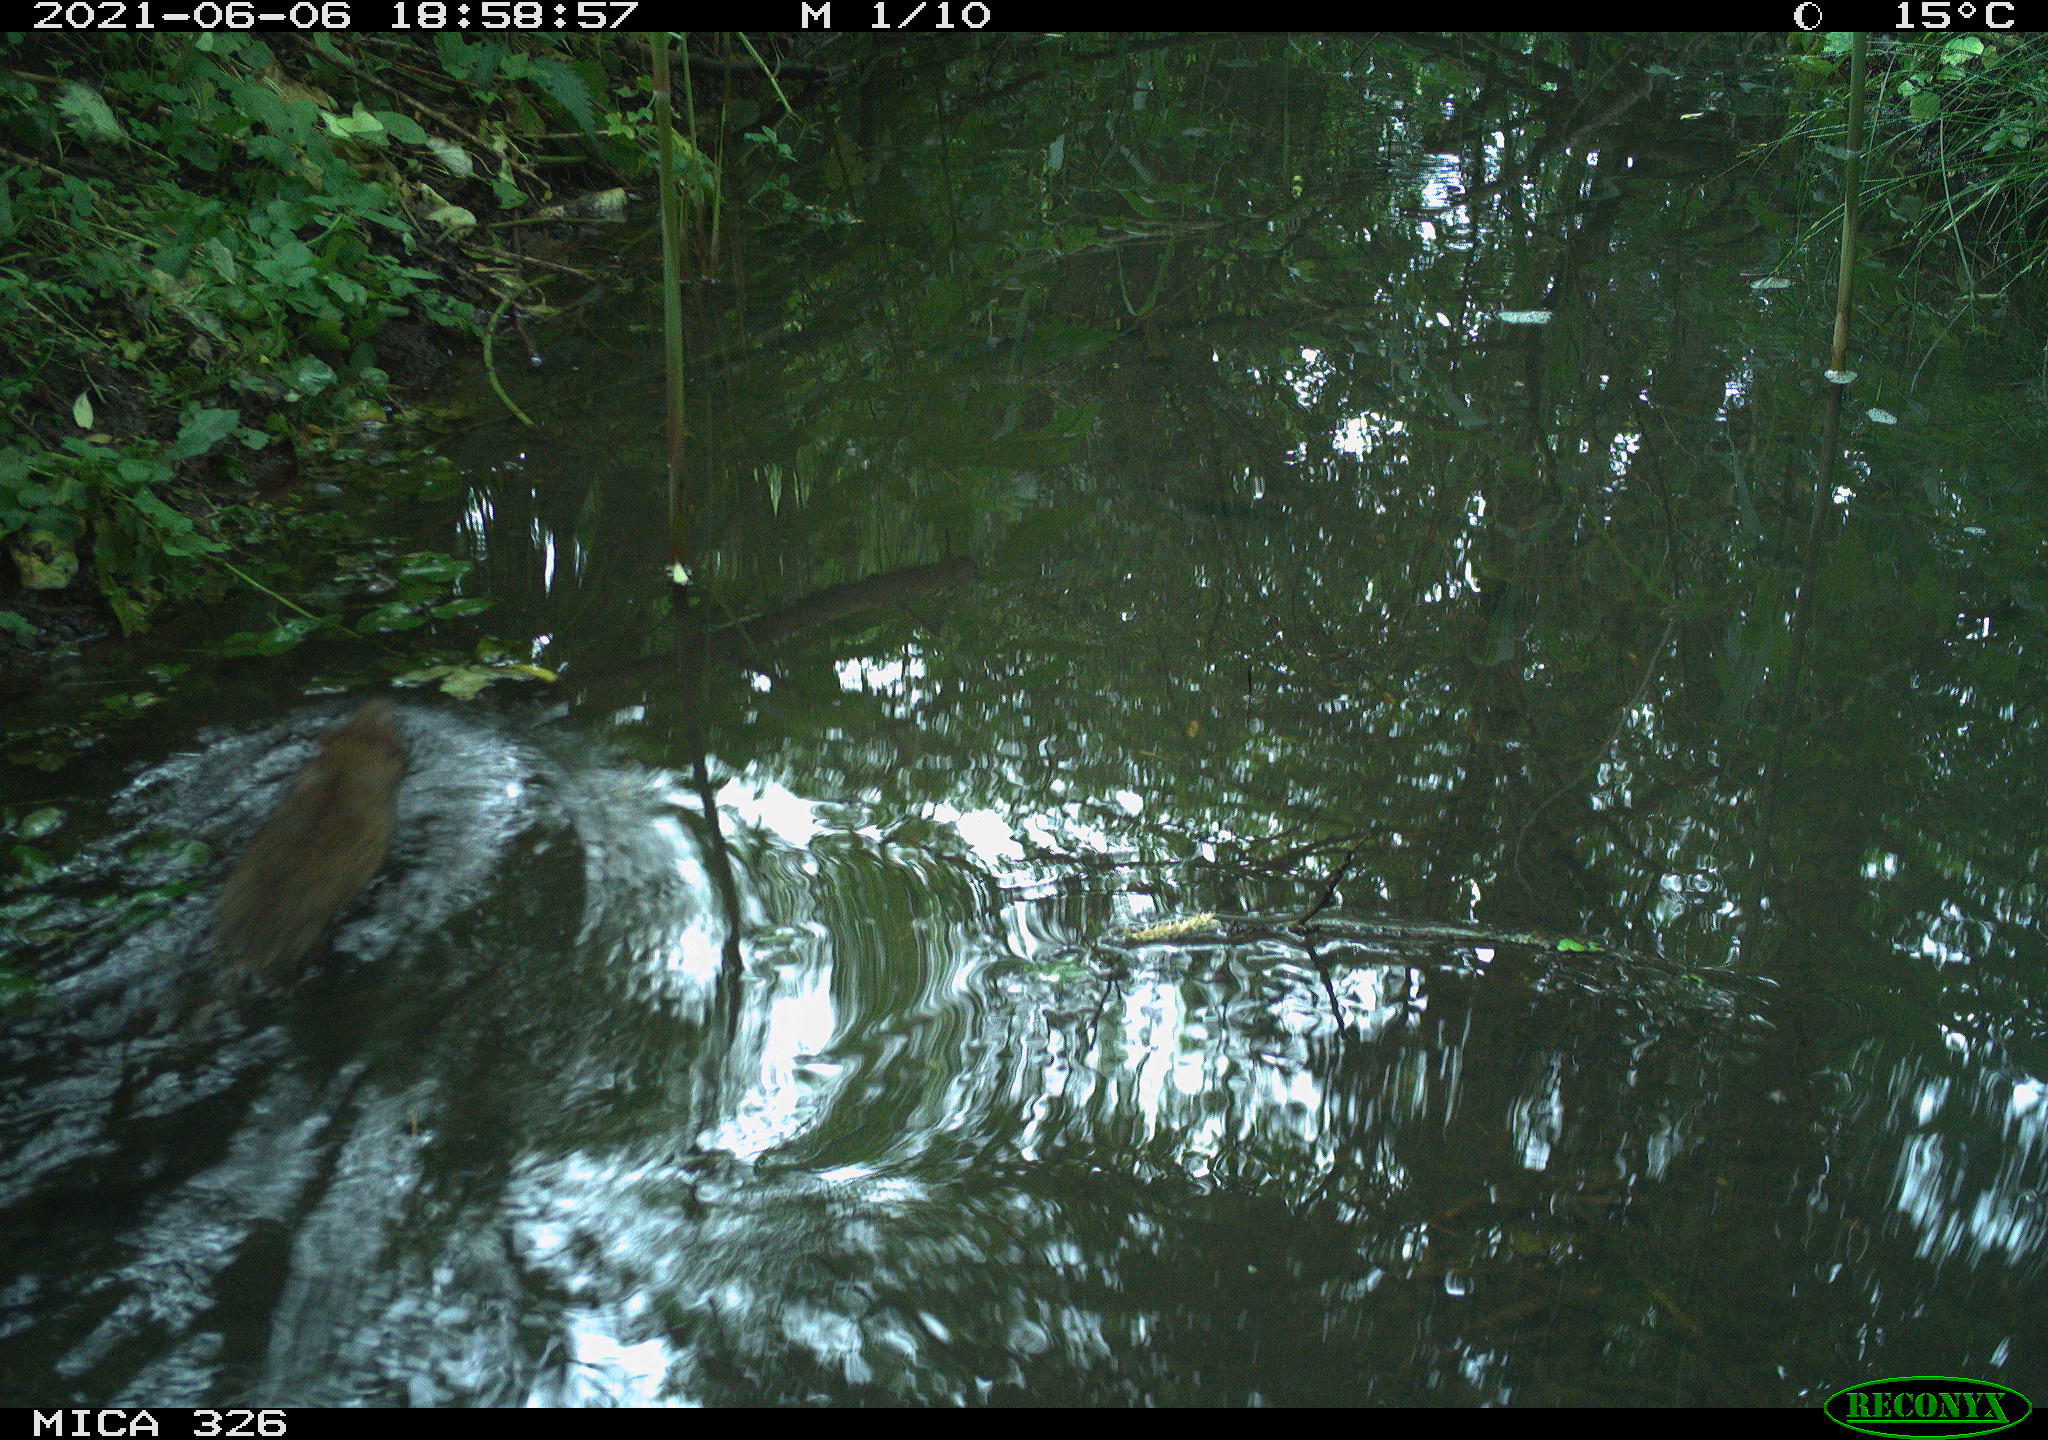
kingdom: Animalia
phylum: Chordata
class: Mammalia
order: Rodentia
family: Muridae
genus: Rattus
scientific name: Rattus norvegicus
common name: Brown rat
